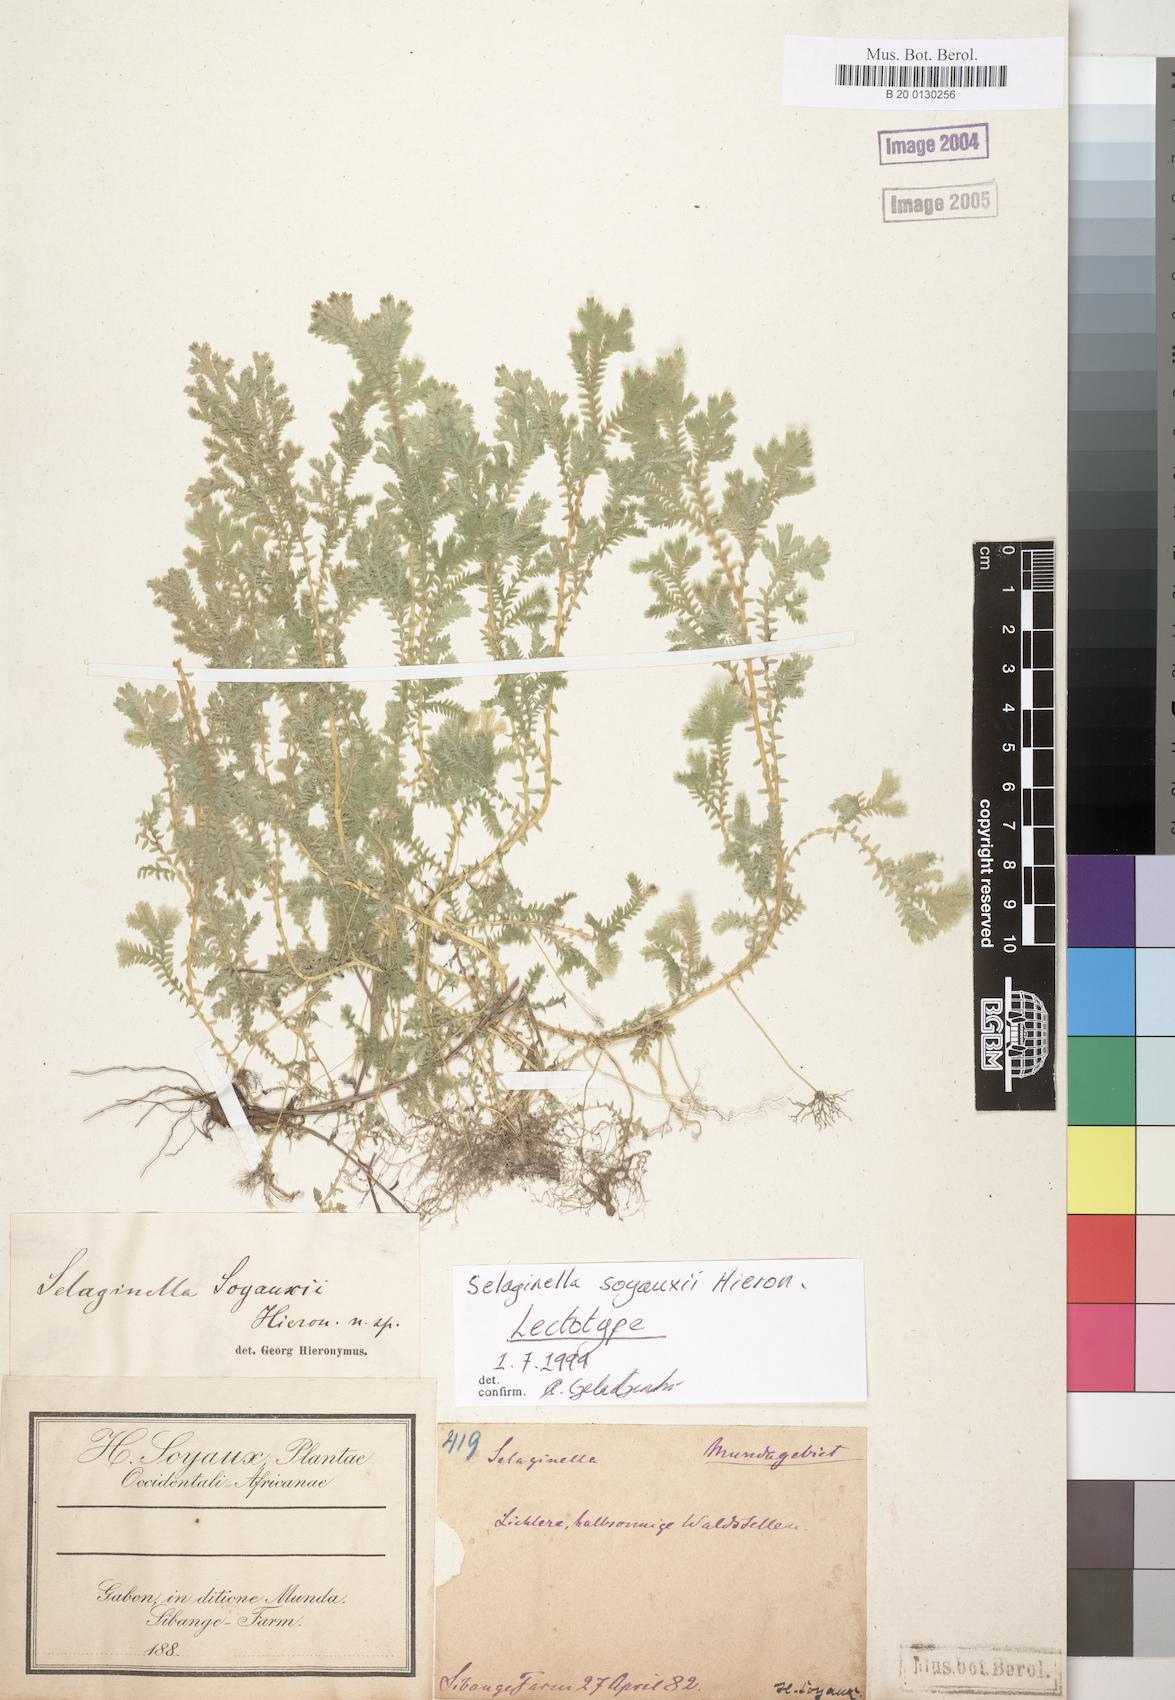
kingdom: Plantae
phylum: Tracheophyta
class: Lycopodiopsida
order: Selaginellales
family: Selaginellaceae
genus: Selaginella
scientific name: Selaginella
